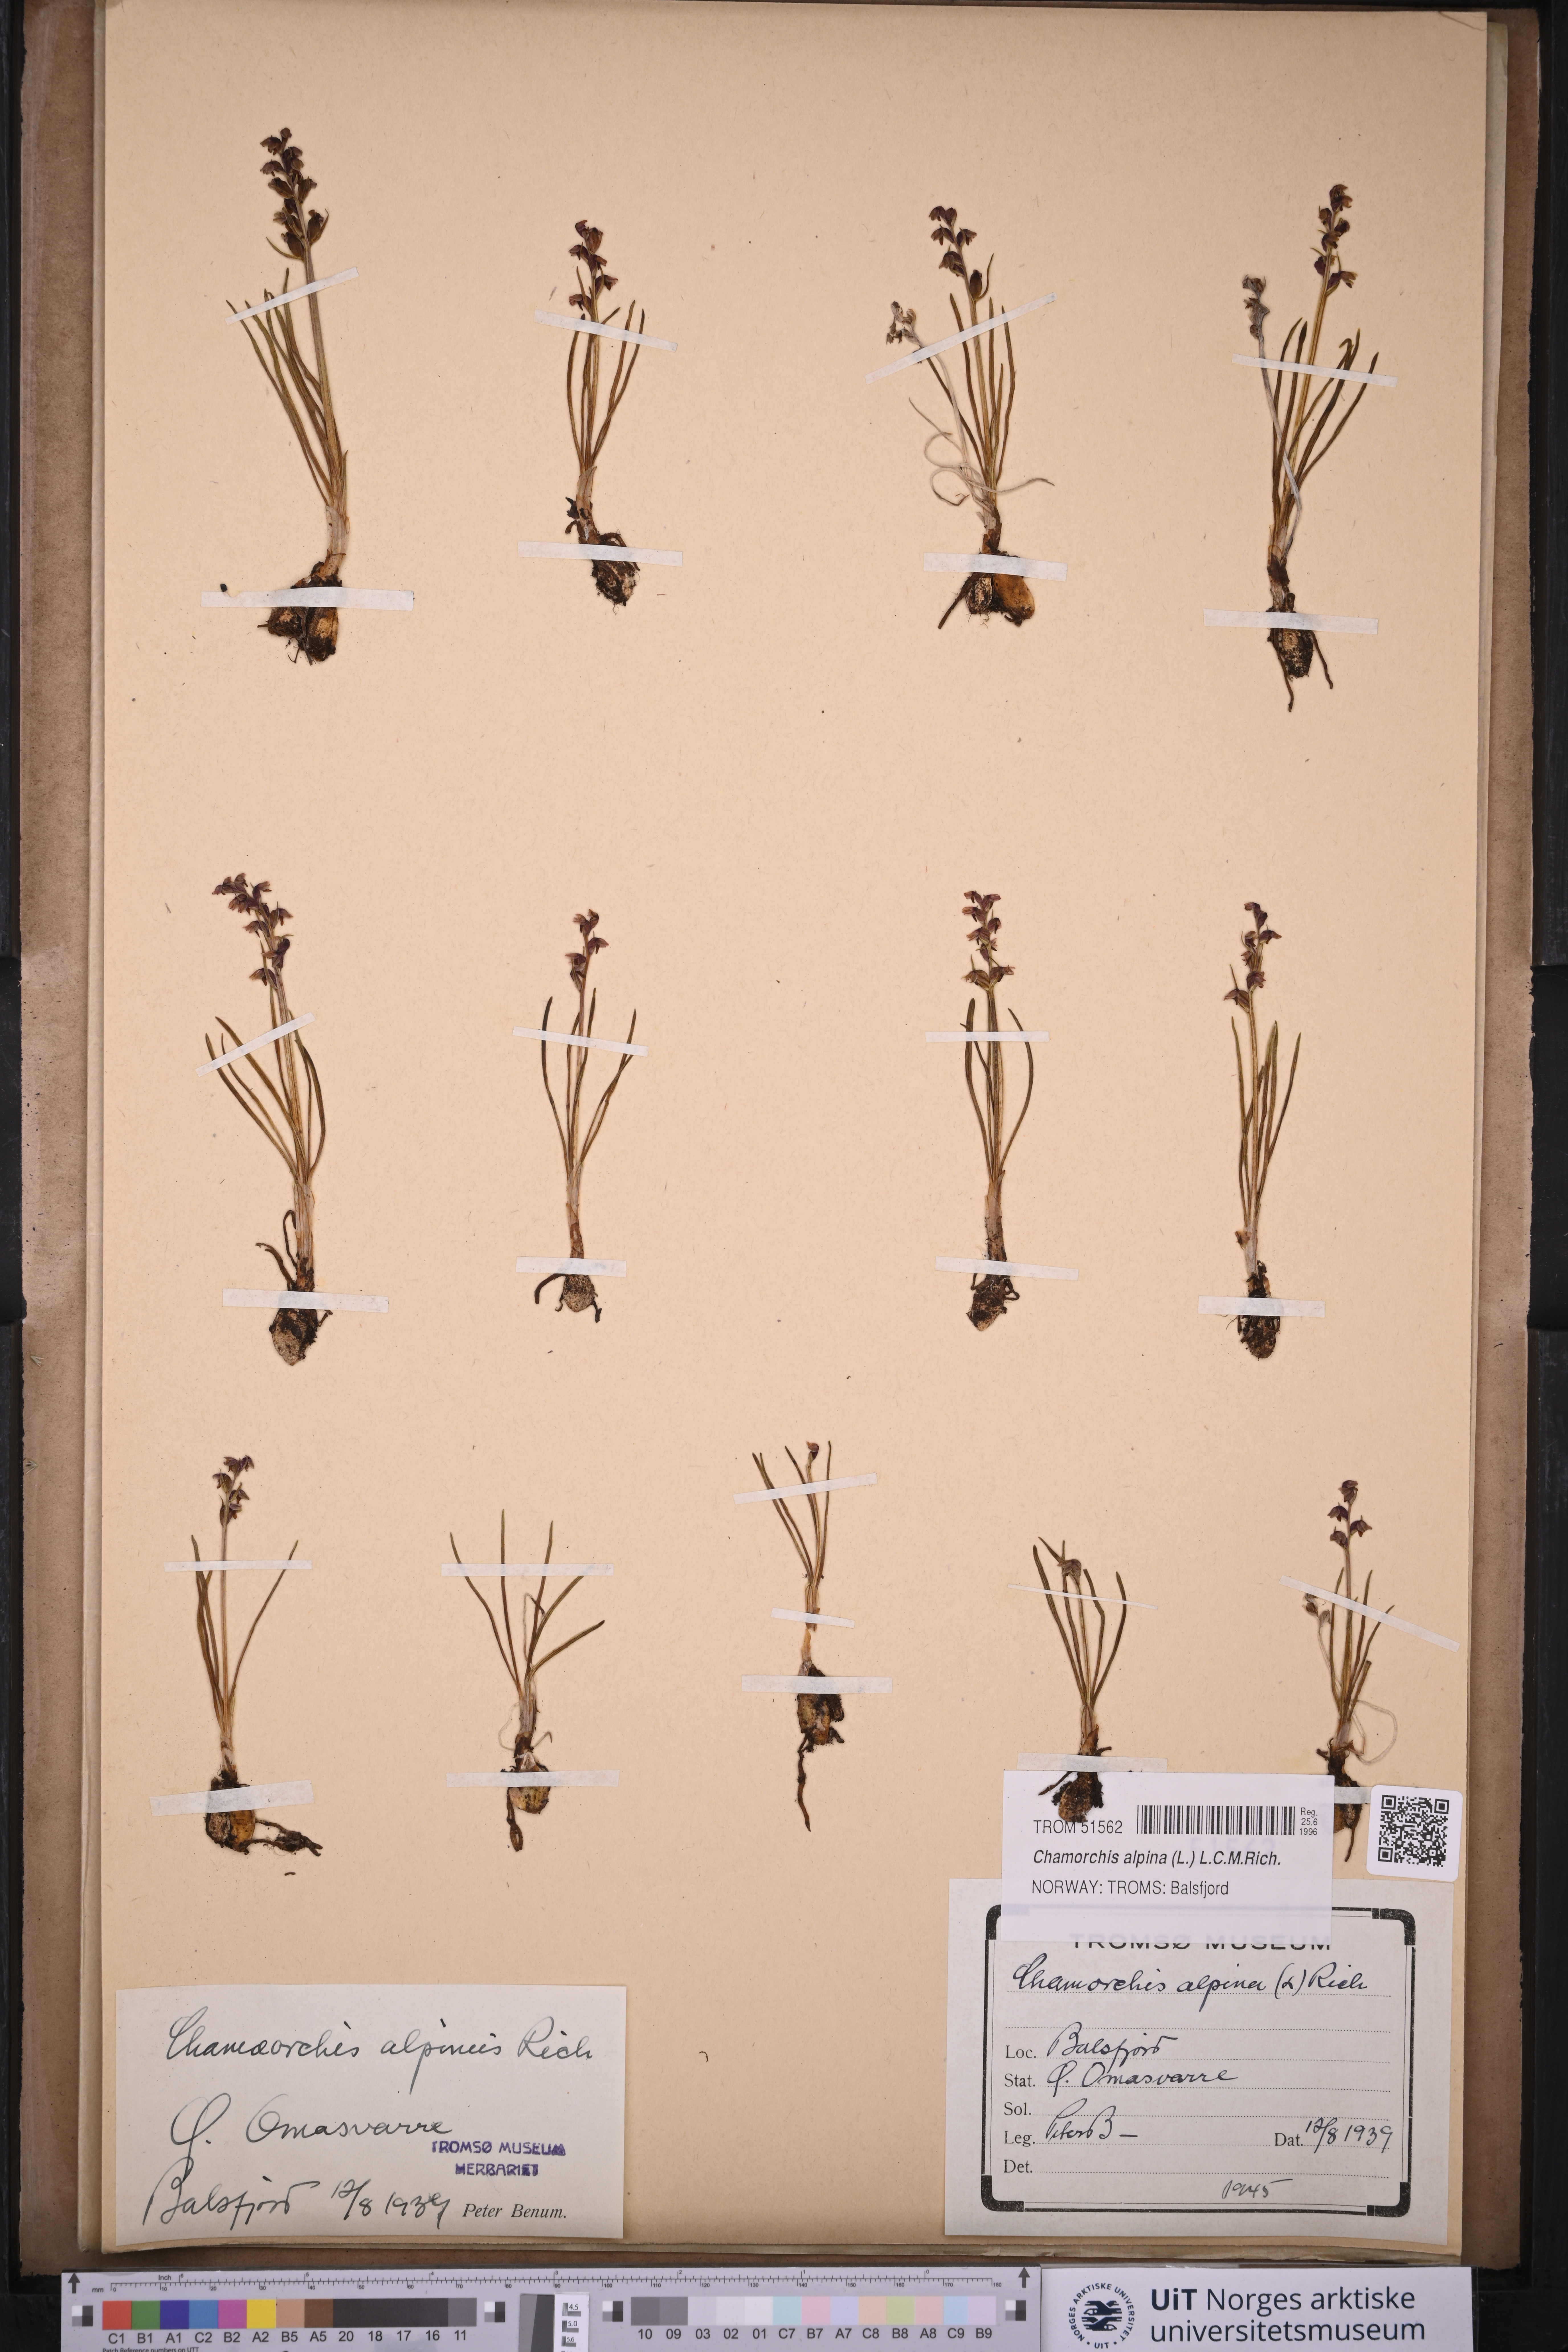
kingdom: Plantae
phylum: Tracheophyta
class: Liliopsida
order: Asparagales
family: Orchidaceae
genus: Chamorchis
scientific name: Chamorchis alpina
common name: Alpine chamorchis
